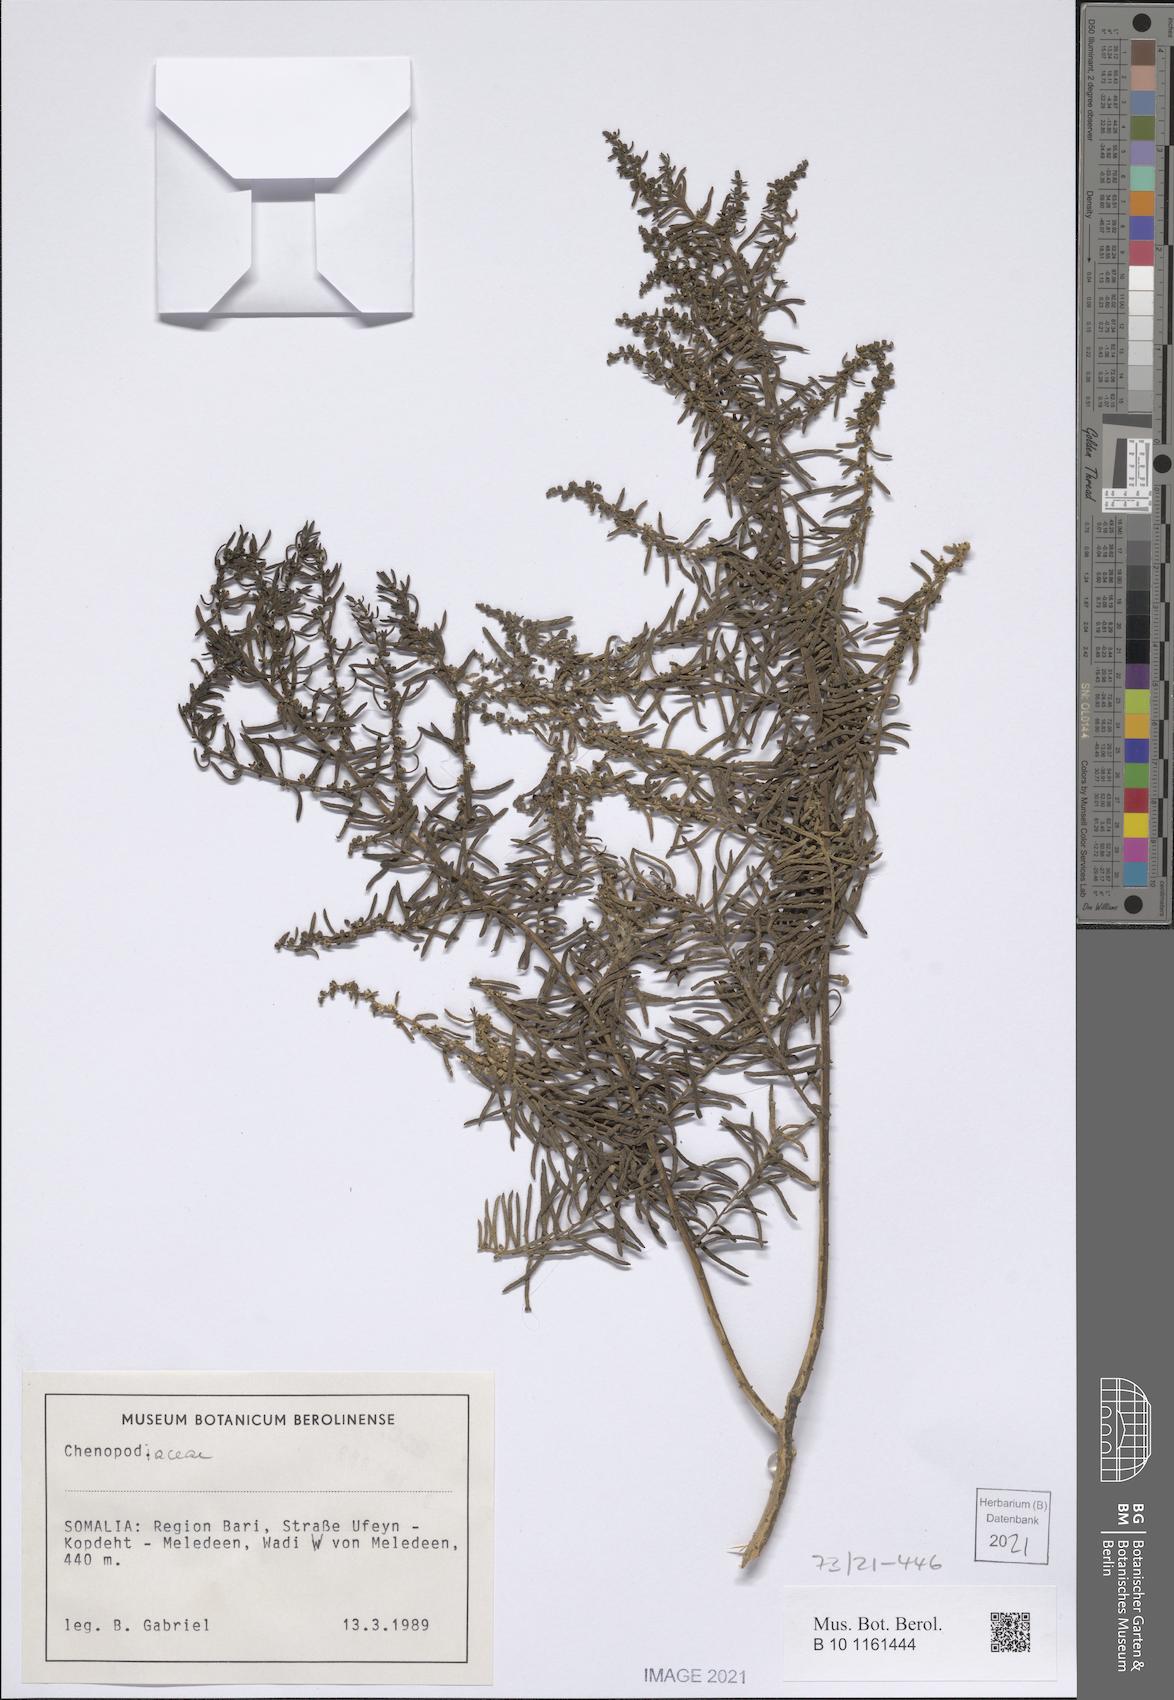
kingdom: Plantae
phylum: Tracheophyta
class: Magnoliopsida
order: Caryophyllales
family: Amaranthaceae
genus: Suaeda
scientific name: Suaeda fruticosa
